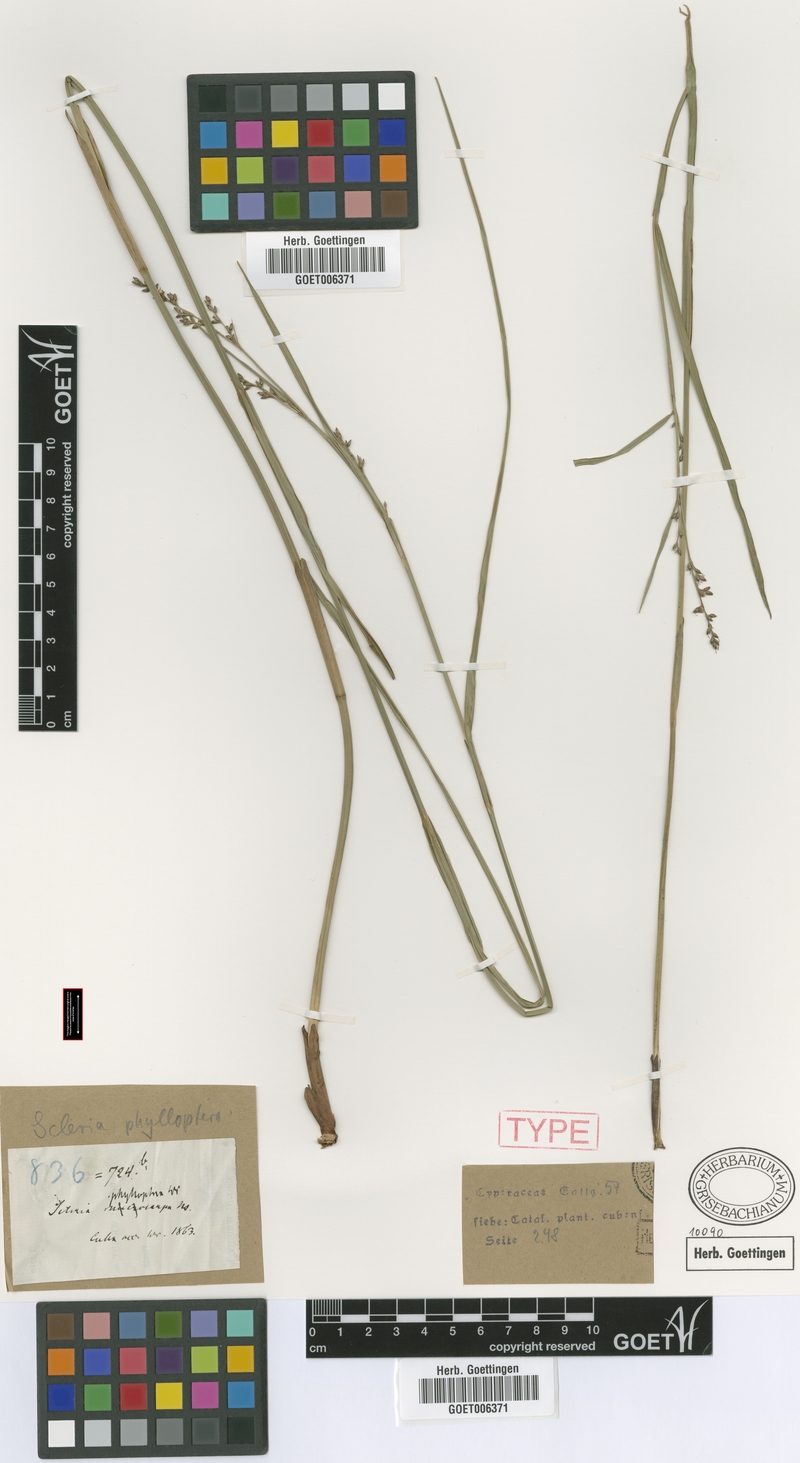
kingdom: Plantae
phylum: Tracheophyta
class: Liliopsida
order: Poales
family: Cyperaceae
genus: Scleria
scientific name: Scleria testacea
